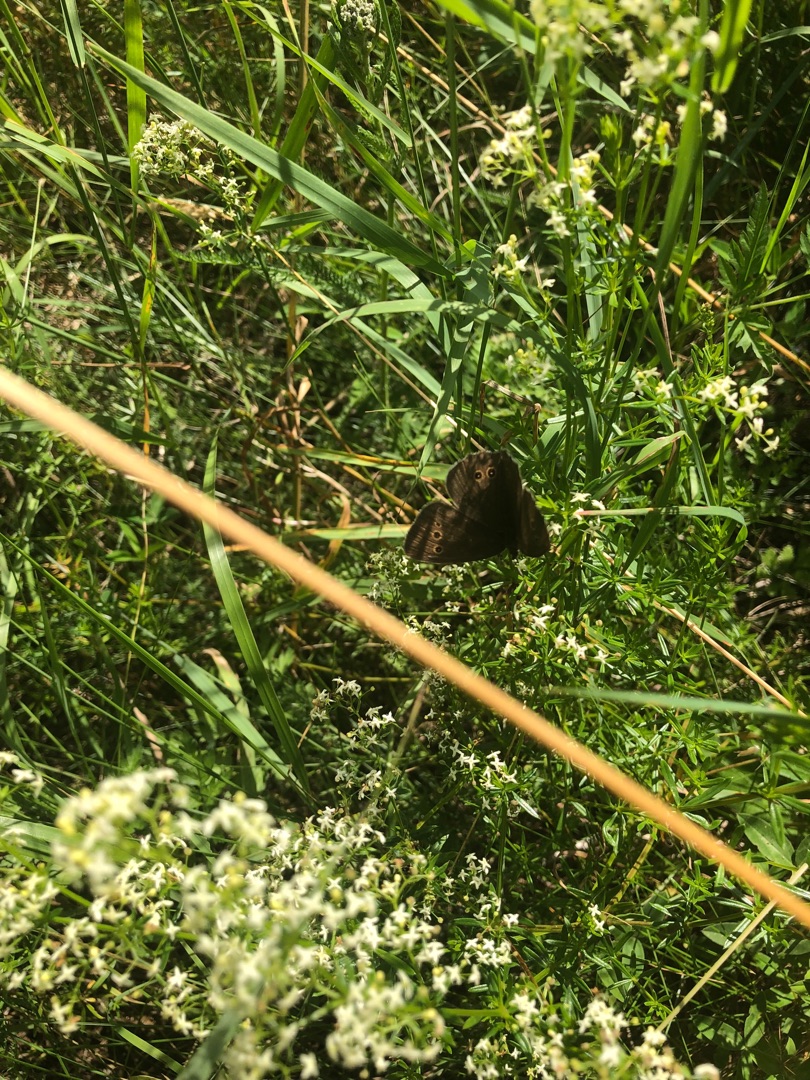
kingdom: Animalia
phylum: Arthropoda
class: Insecta
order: Lepidoptera
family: Nymphalidae
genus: Aphantopus
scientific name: Aphantopus hyperantus
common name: Engrandøje
